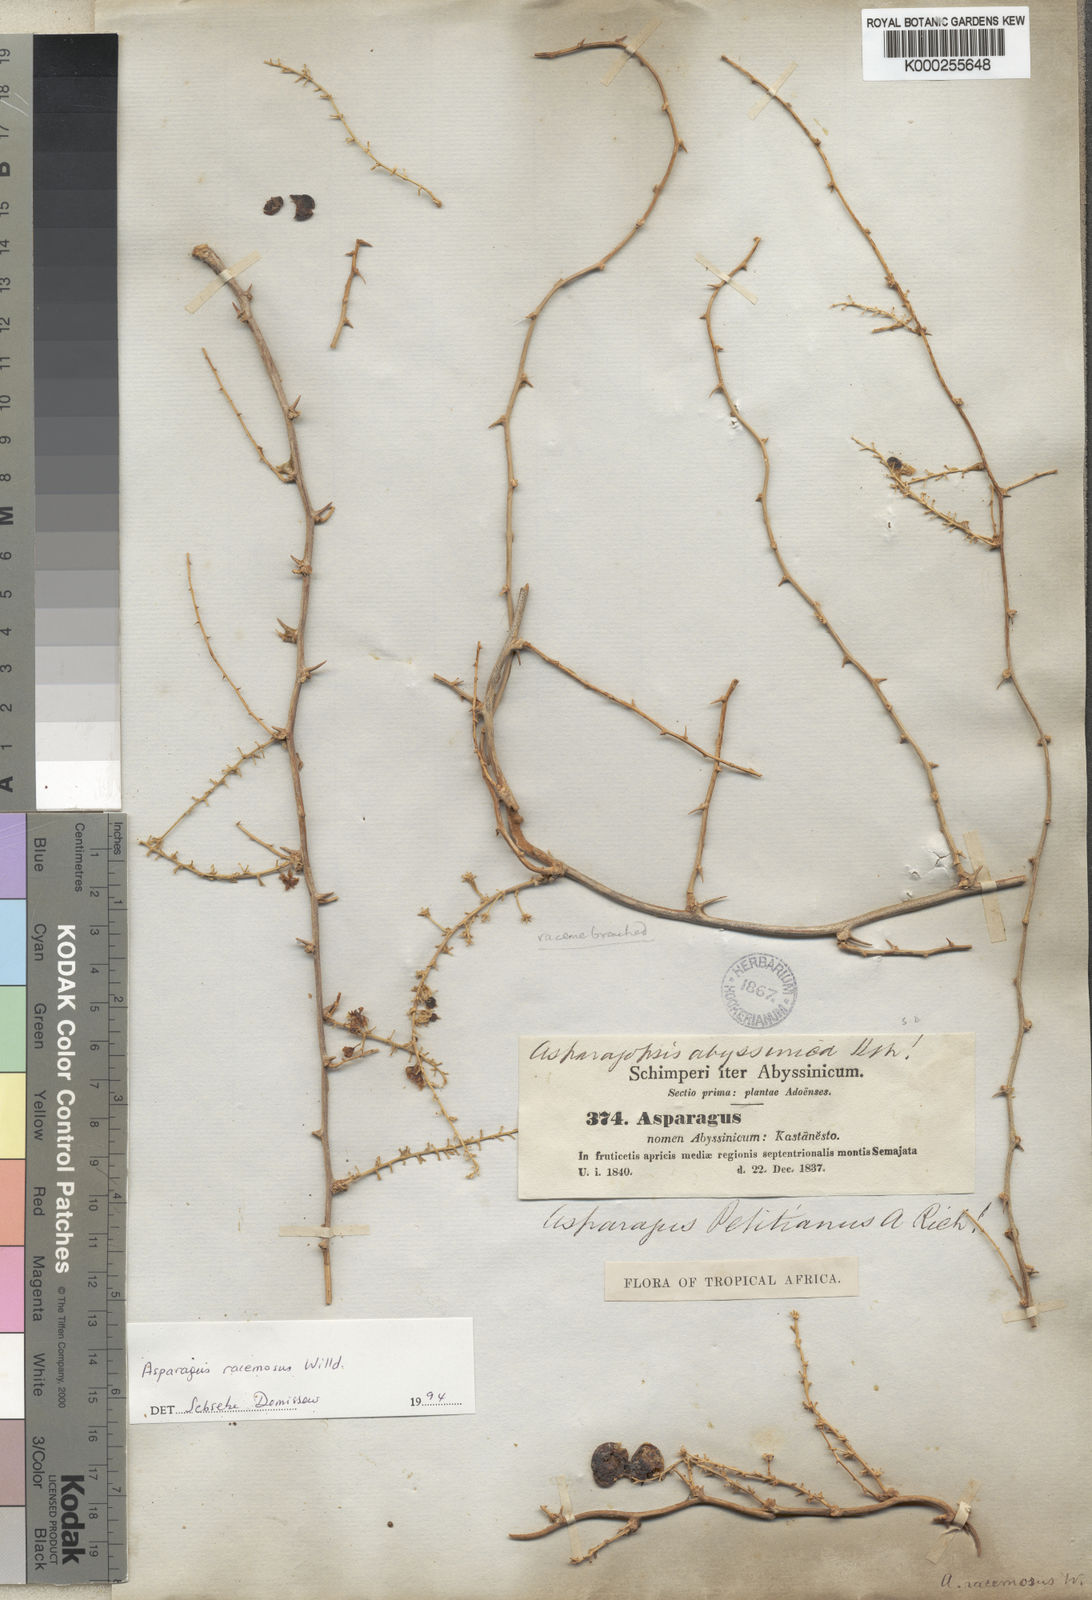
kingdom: Plantae
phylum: Tracheophyta
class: Liliopsida
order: Asparagales
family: Asparagaceae
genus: Asparagus
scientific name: Asparagus racemosus
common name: Asparagus-fern
